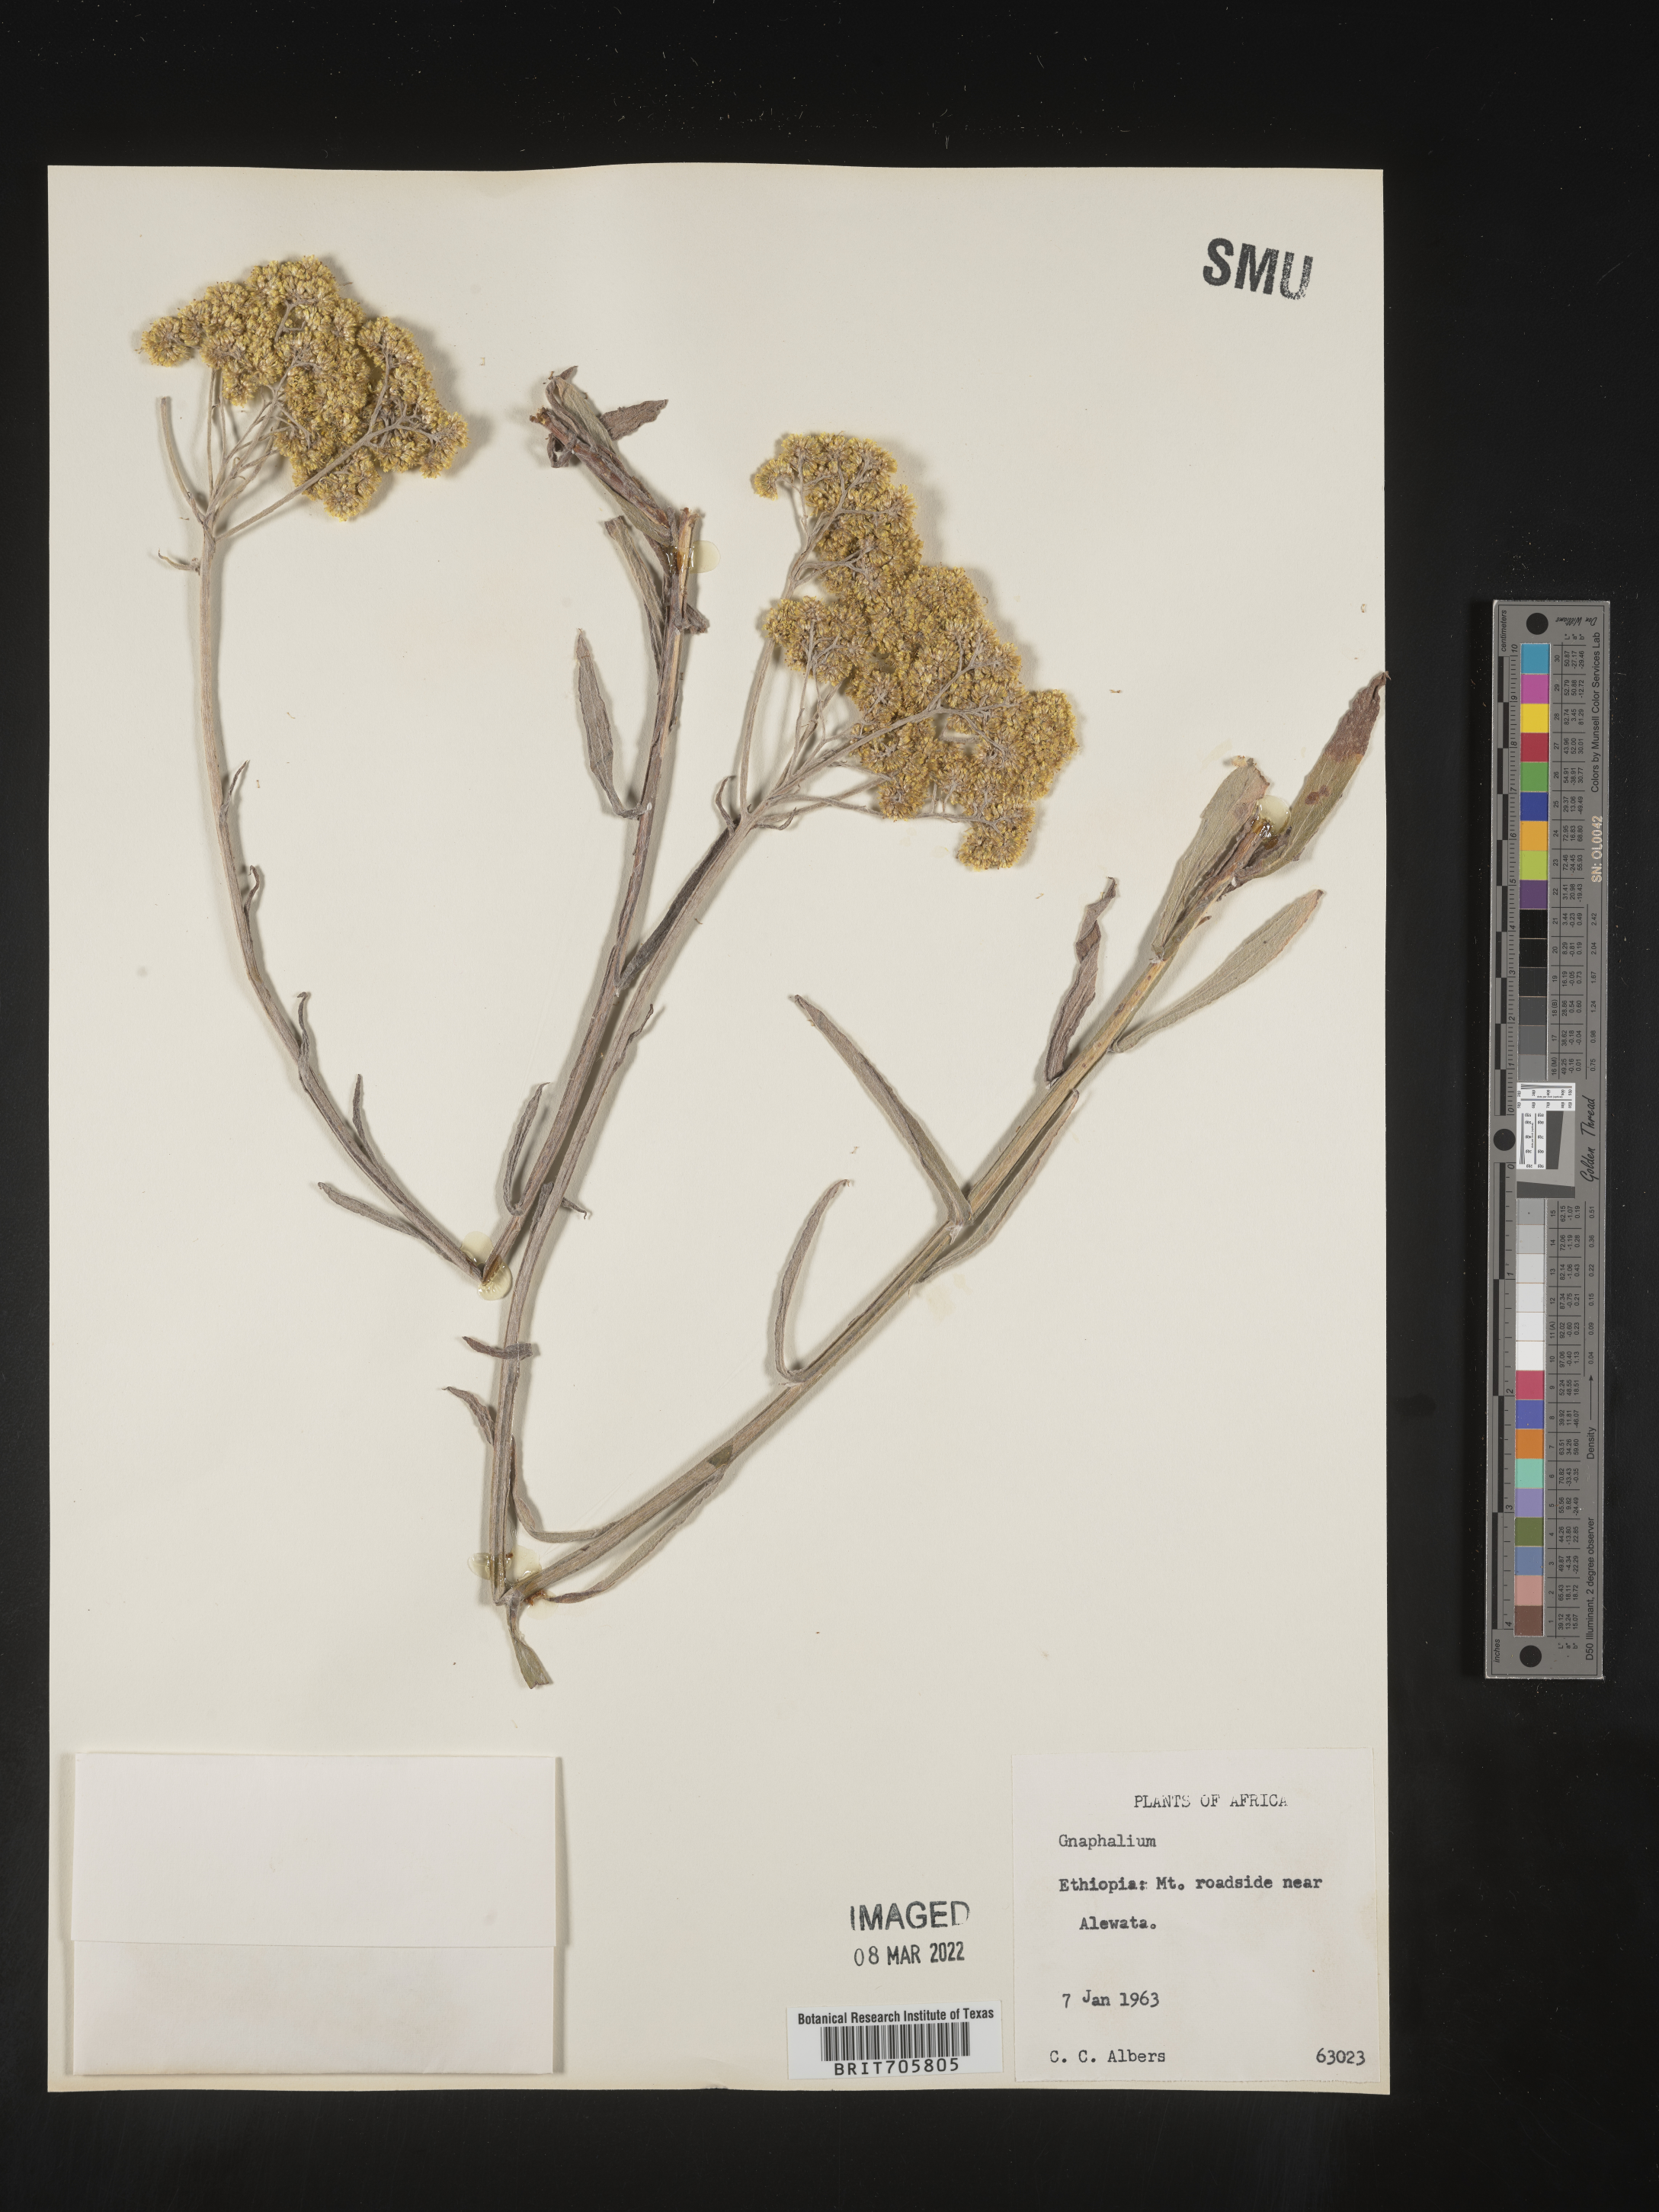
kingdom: Plantae
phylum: Tracheophyta
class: Magnoliopsida
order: Asterales
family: Asteraceae
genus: Pseudognaphalium
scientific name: Pseudognaphalium
